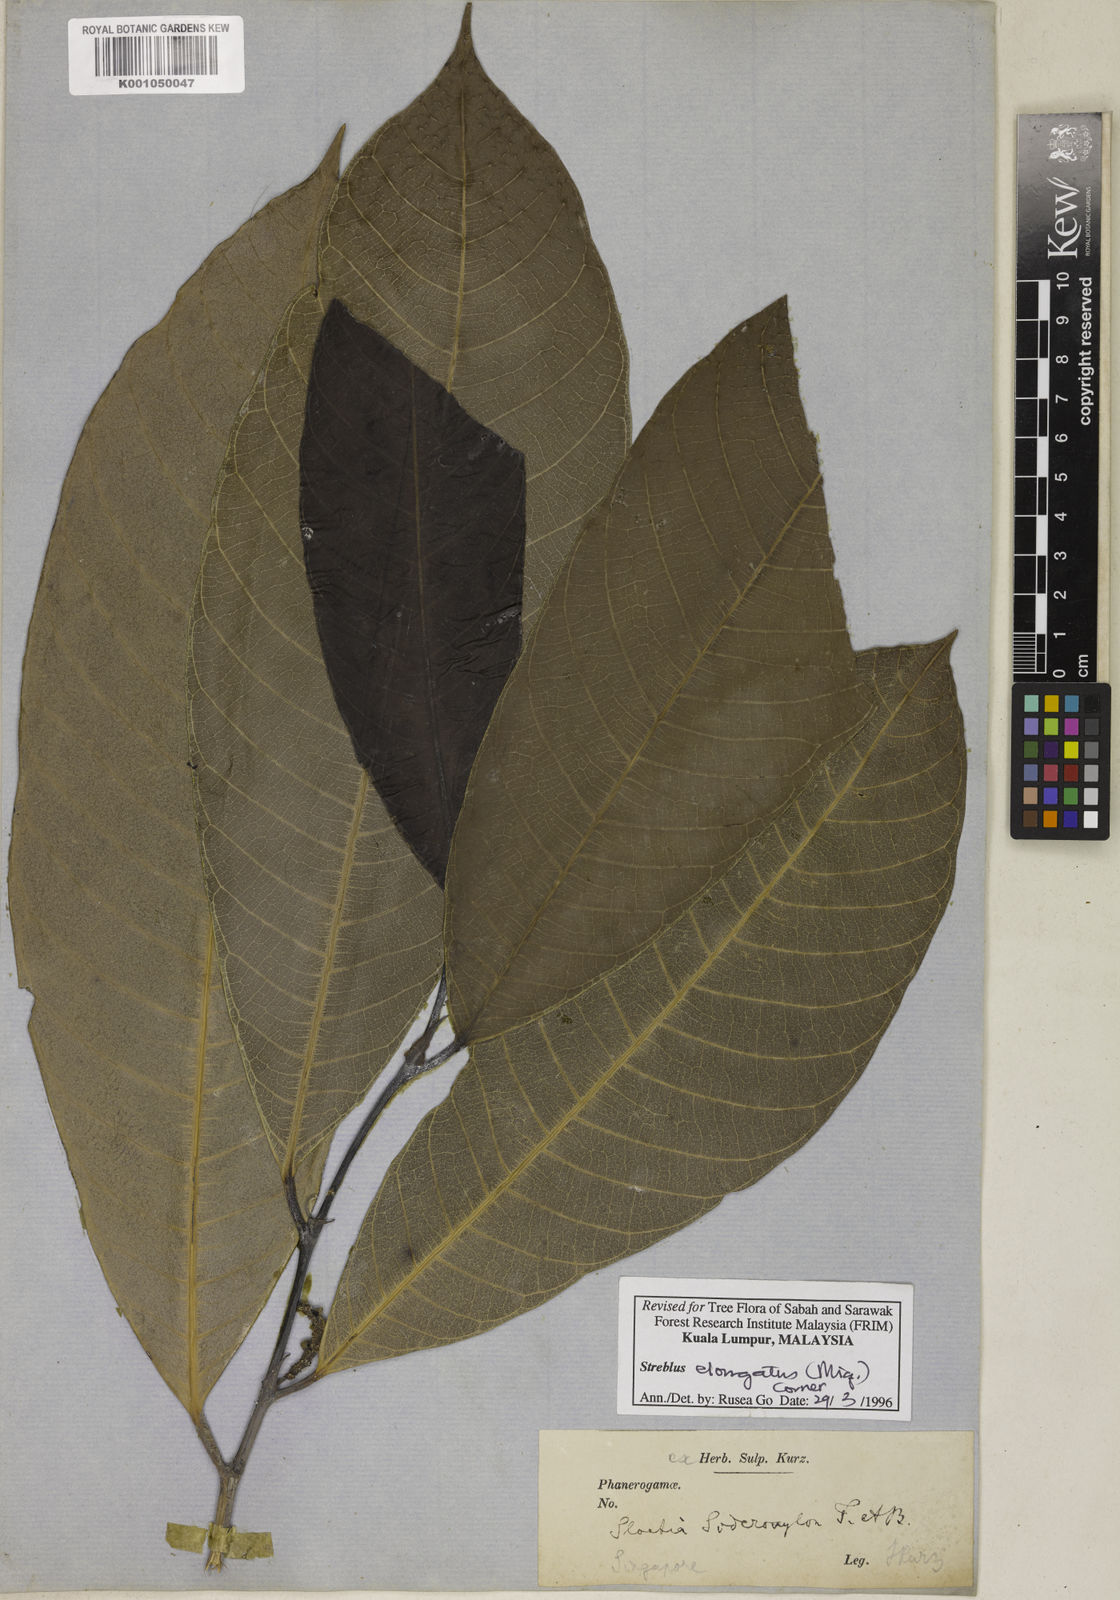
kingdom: Plantae
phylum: Tracheophyta
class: Magnoliopsida
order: Rosales
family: Moraceae
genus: Sloetia
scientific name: Sloetia elongata
